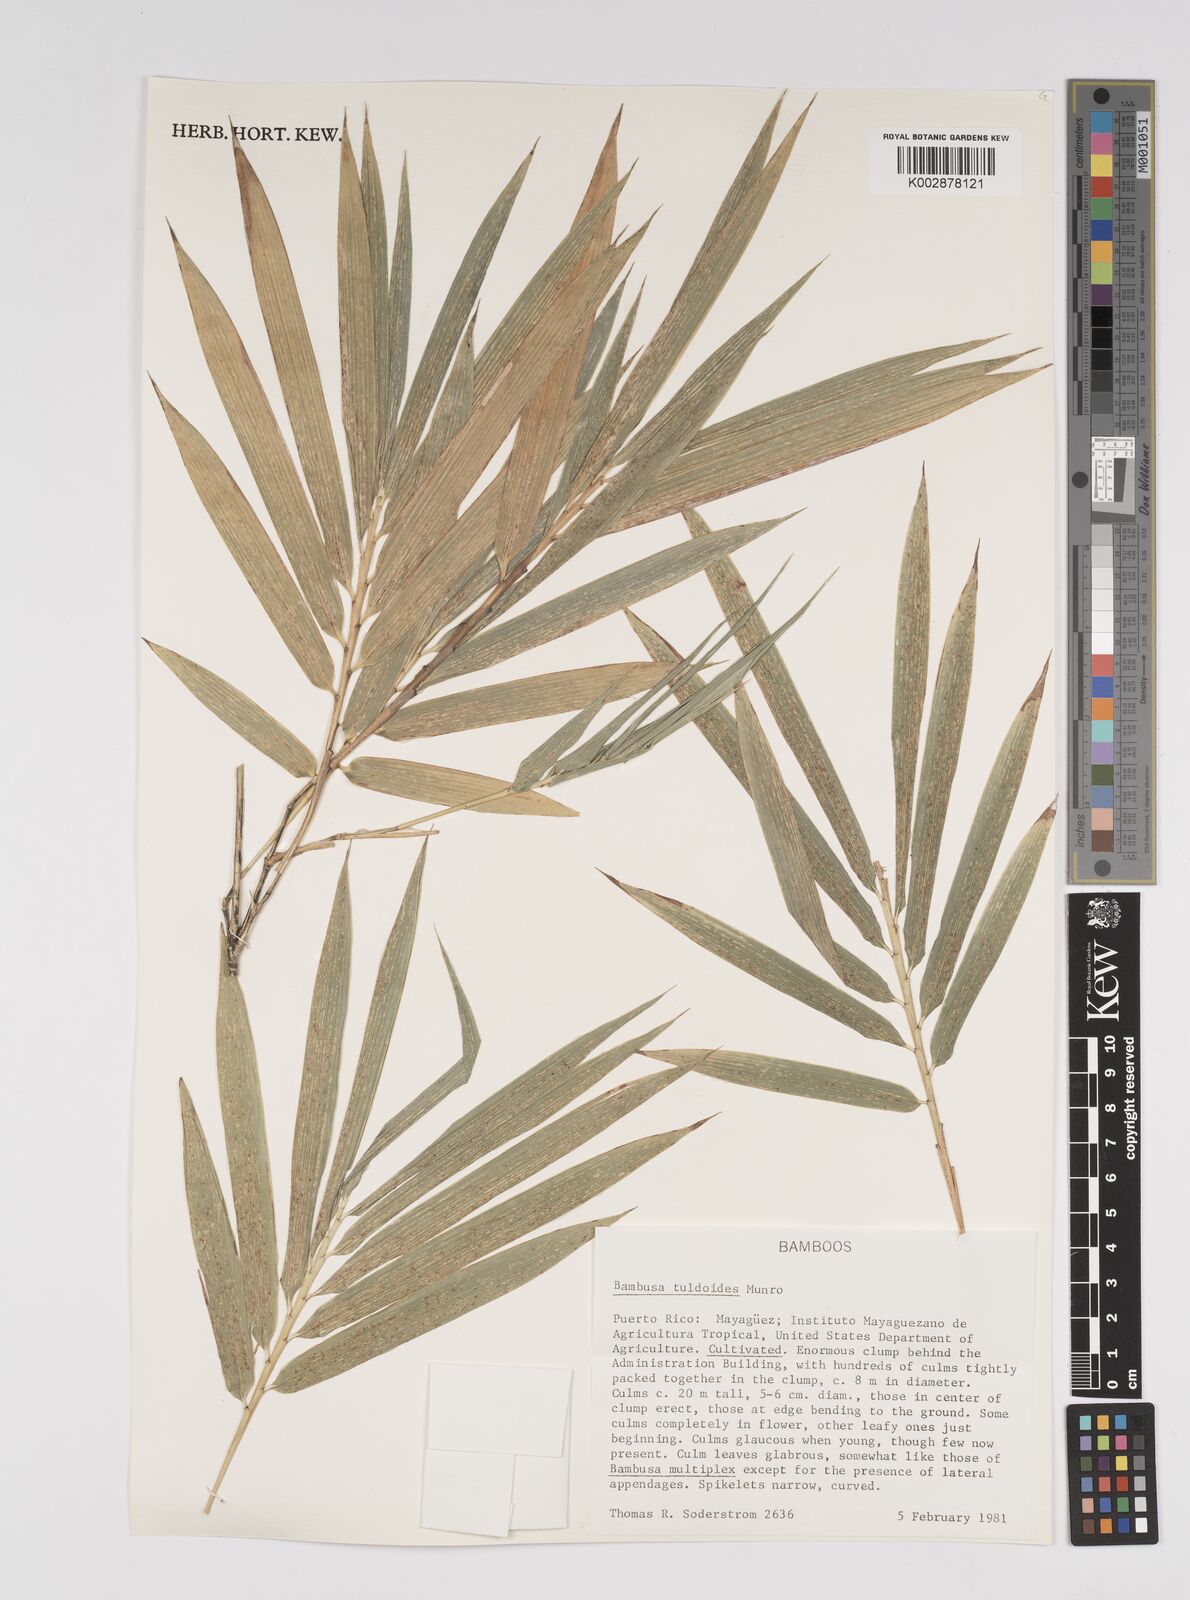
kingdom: Plantae
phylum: Tracheophyta
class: Liliopsida
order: Poales
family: Poaceae
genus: Bambusa
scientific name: Bambusa tuldoides
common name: Verdant bamboo
